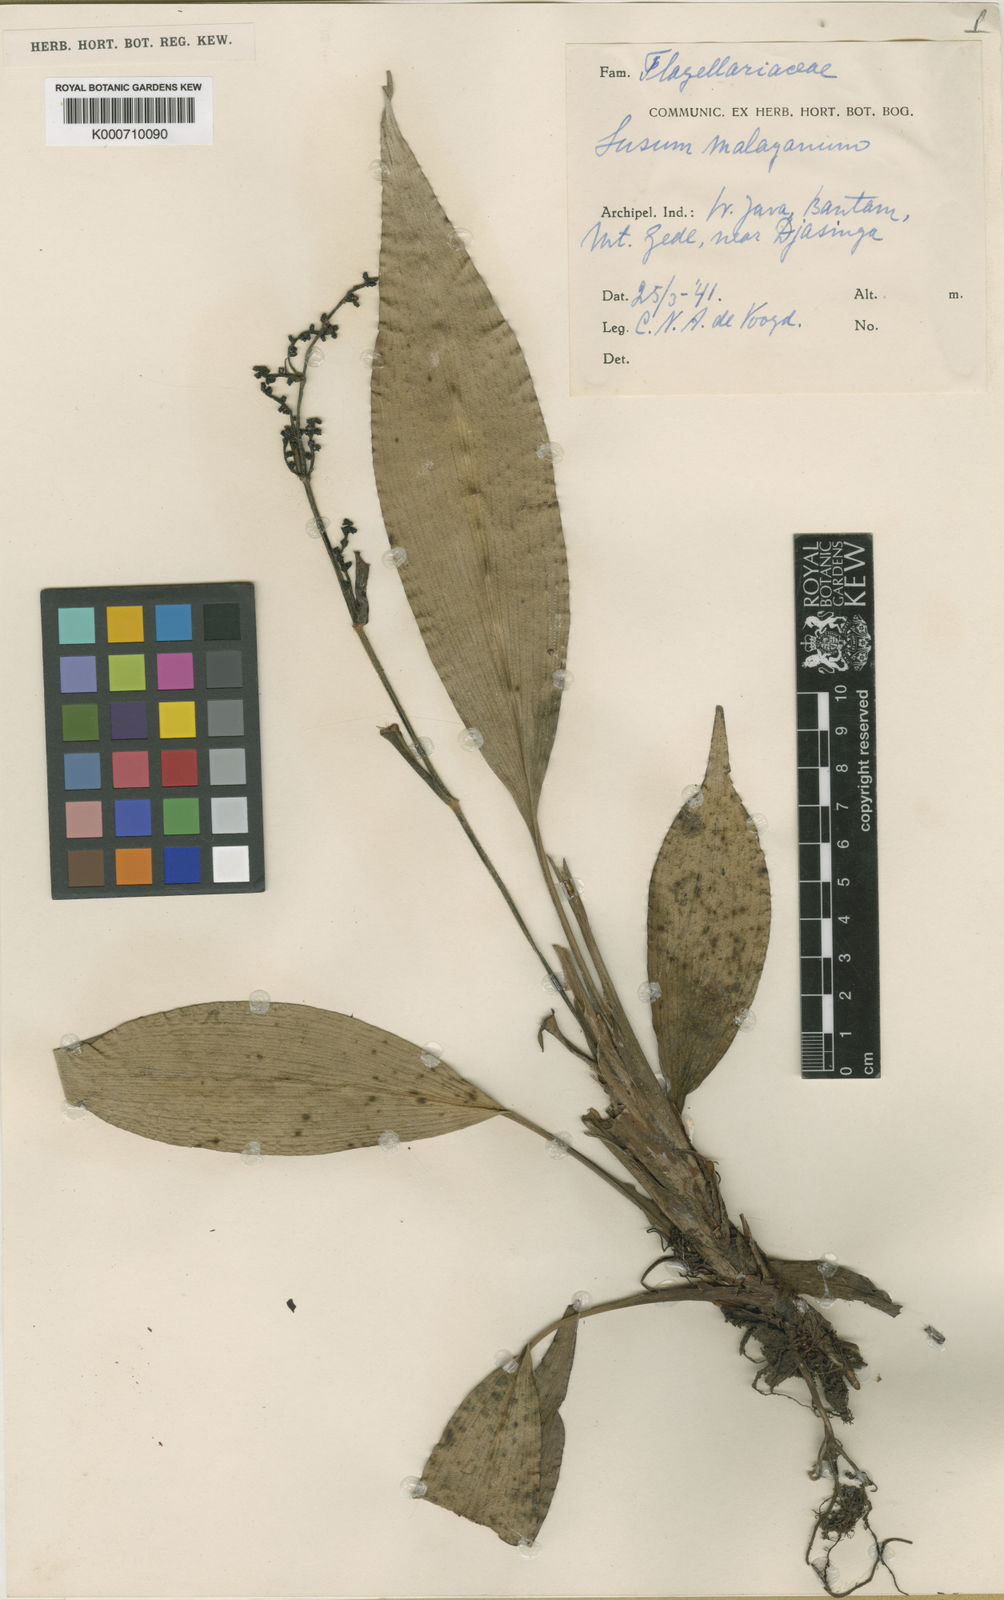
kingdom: Plantae
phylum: Tracheophyta
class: Liliopsida
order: Commelinales
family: Hanguanaceae
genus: Hanguana
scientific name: Hanguana malayana
